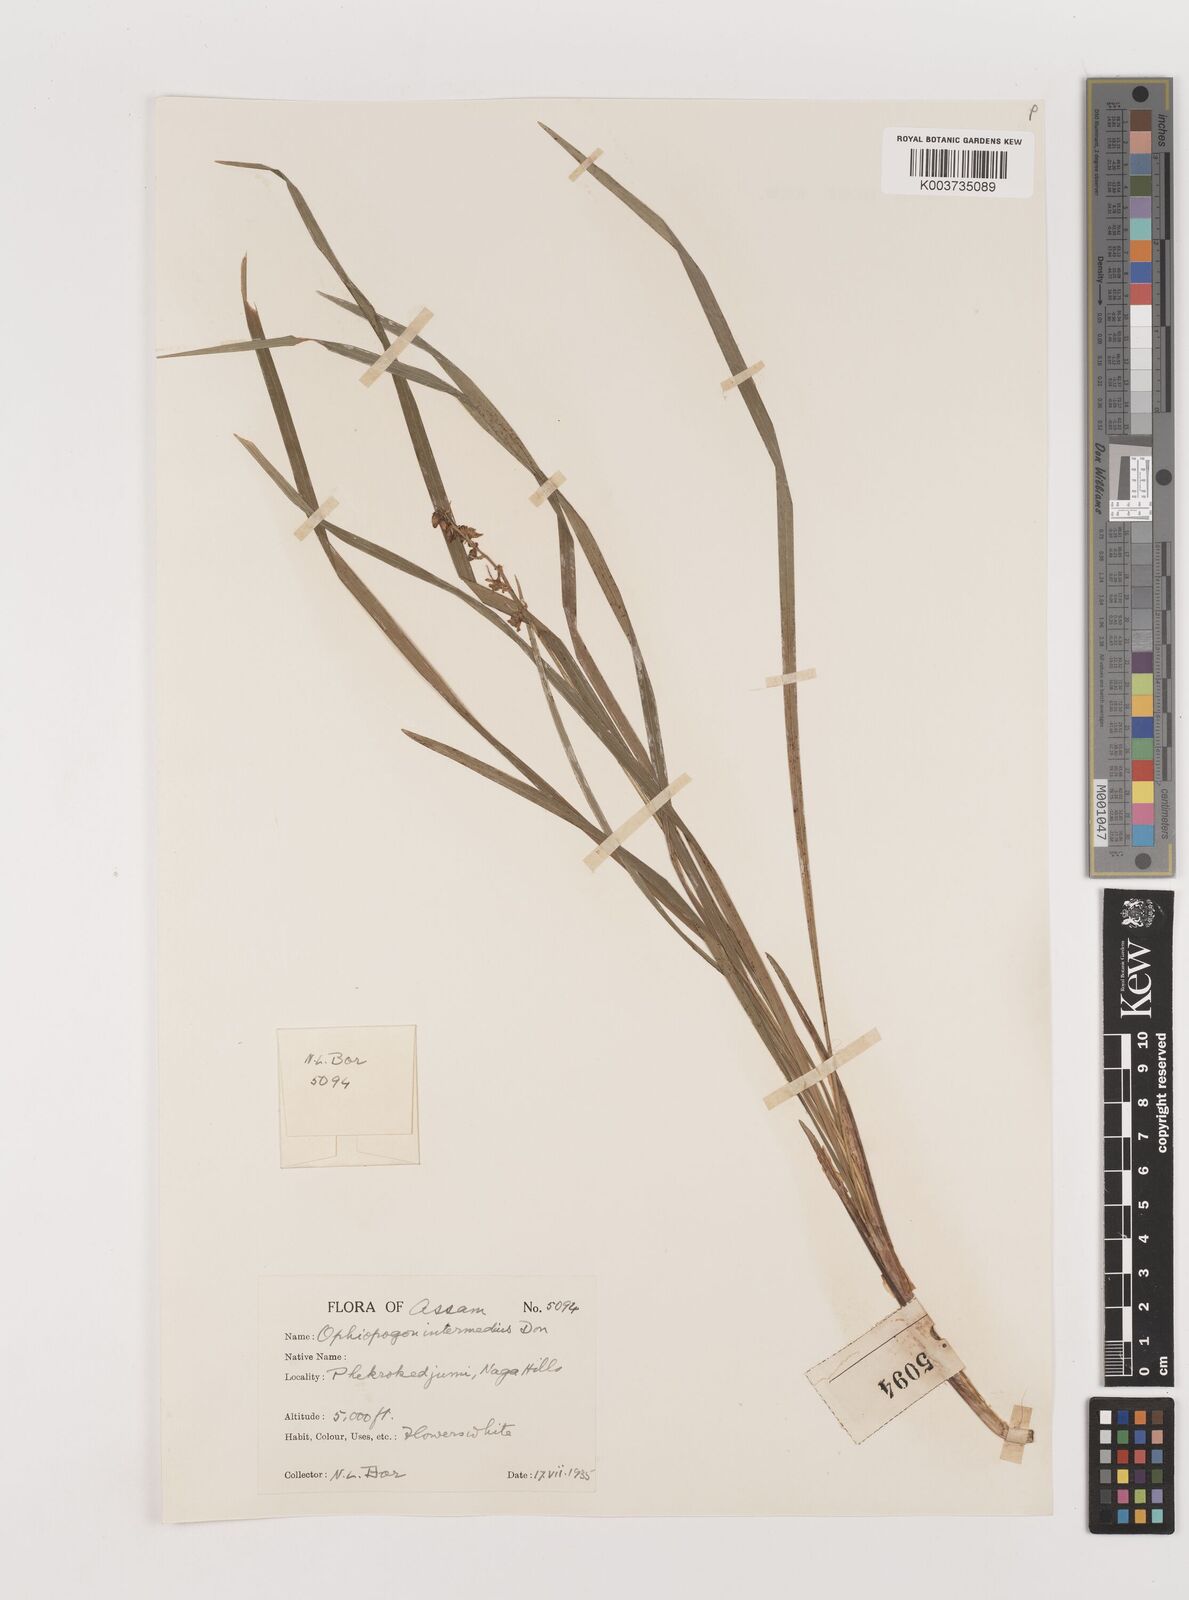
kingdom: Plantae
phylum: Tracheophyta
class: Liliopsida
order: Asparagales
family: Asparagaceae
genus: Ophiopogon
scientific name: Ophiopogon
